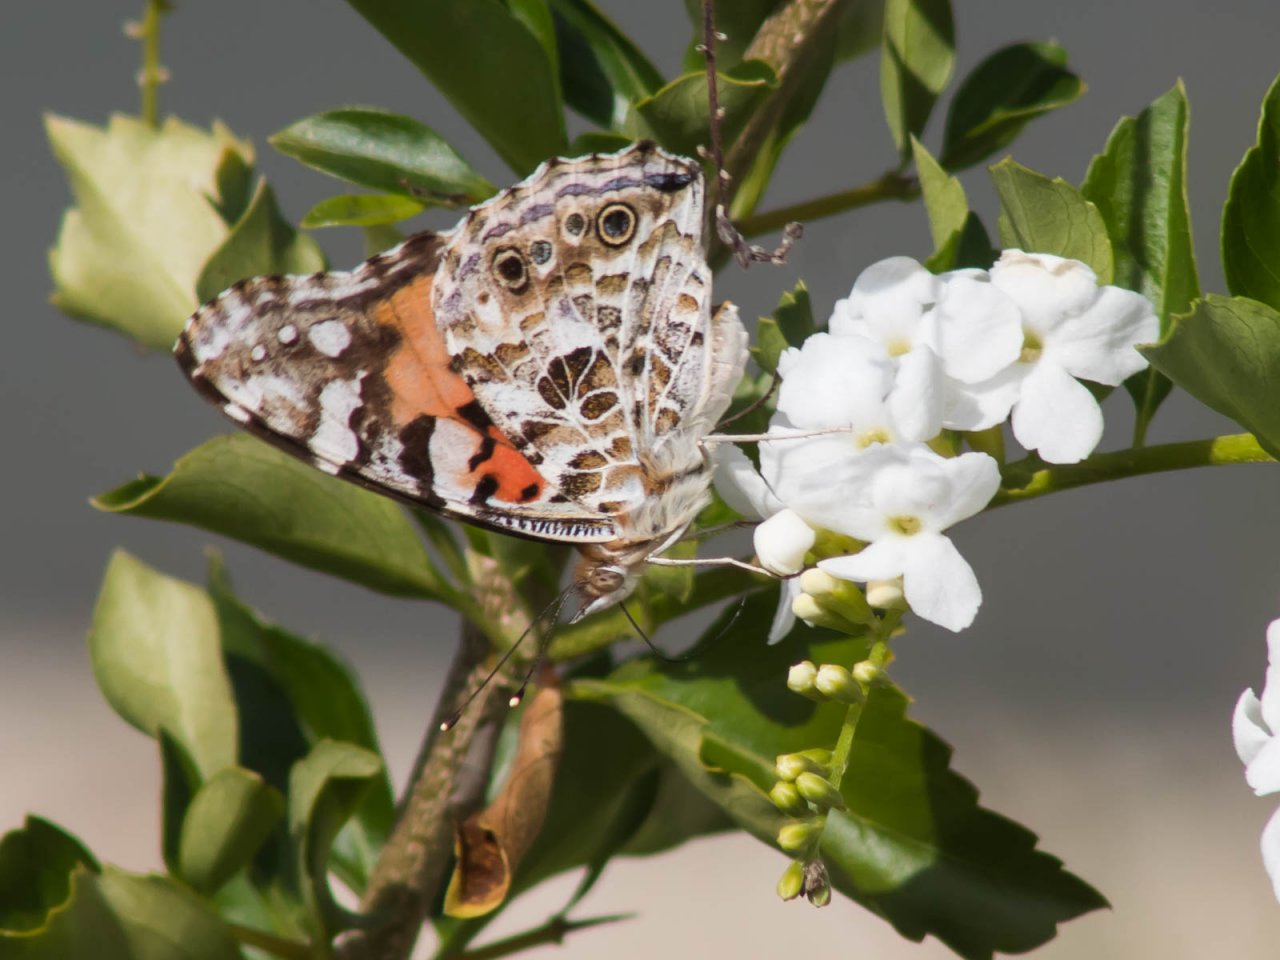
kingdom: Animalia
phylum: Arthropoda
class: Insecta
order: Lepidoptera
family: Nymphalidae
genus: Vanessa
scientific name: Vanessa cardui
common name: Painted Lady
